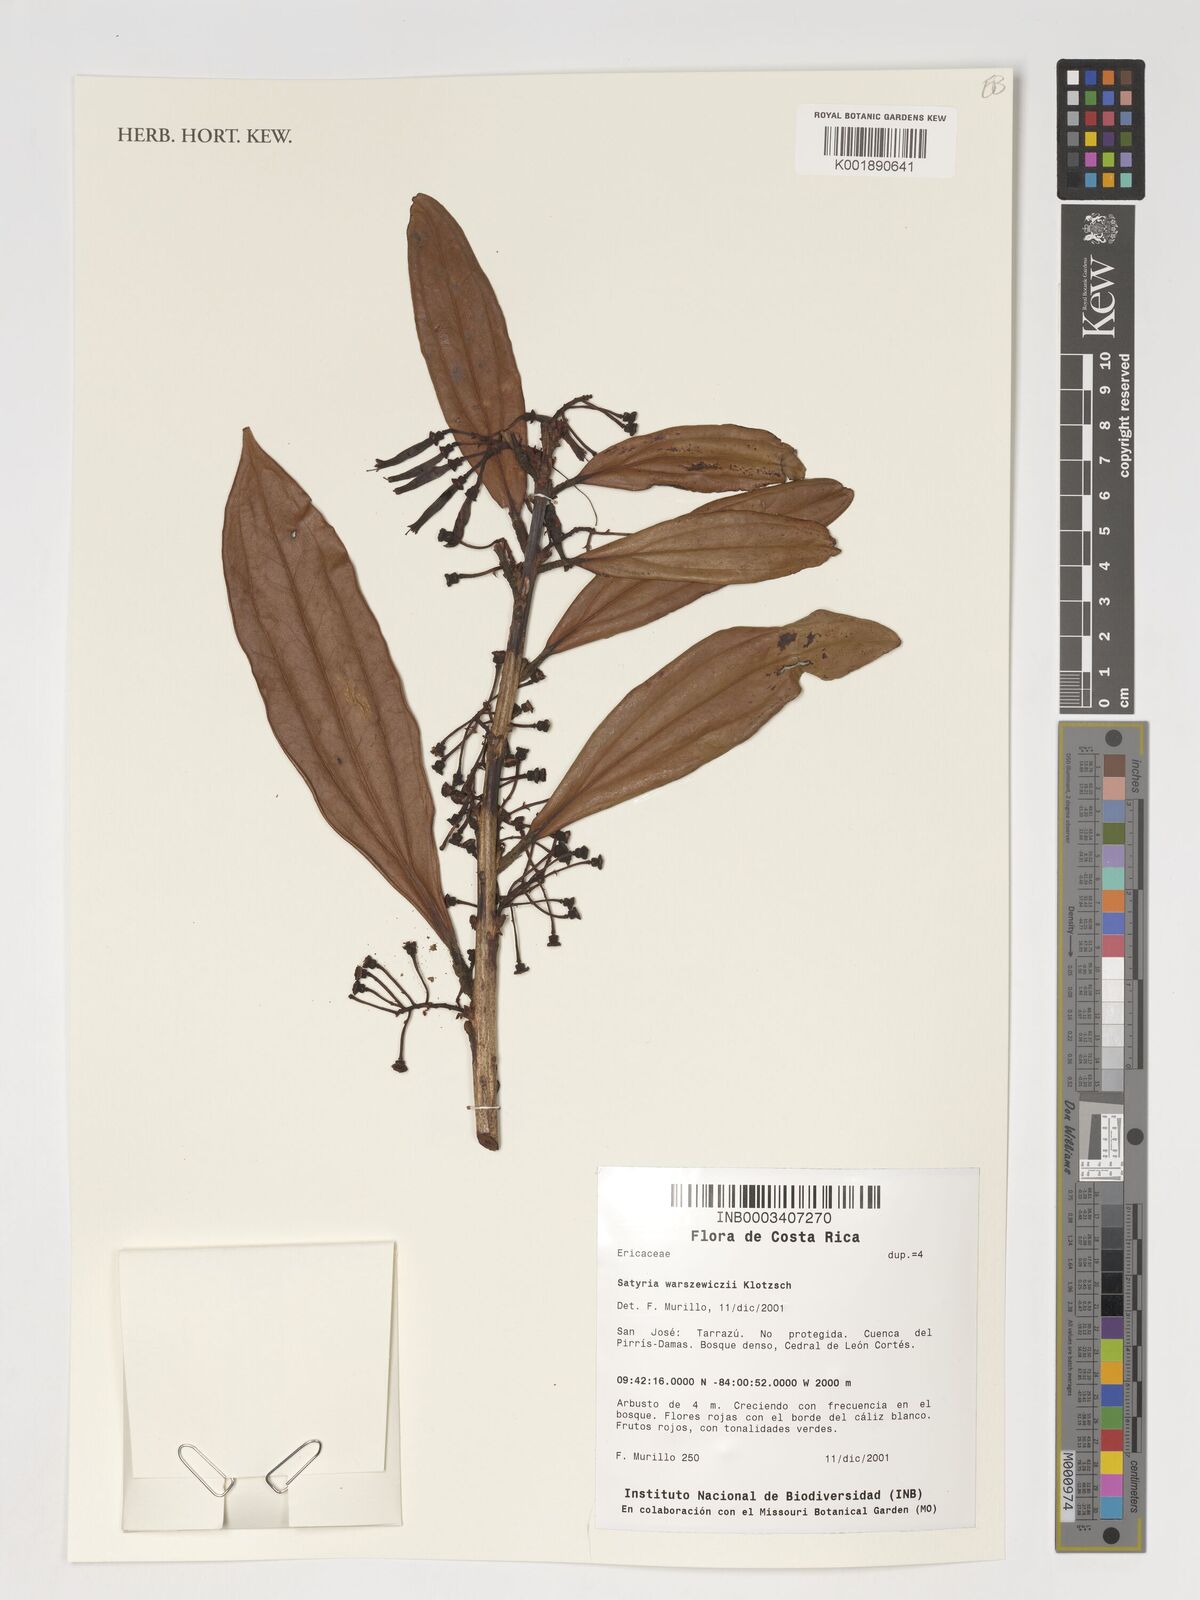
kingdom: Plantae
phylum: Tracheophyta
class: Magnoliopsida
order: Ericales
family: Ericaceae
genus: Satyria
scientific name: Satyria warszewiczii
